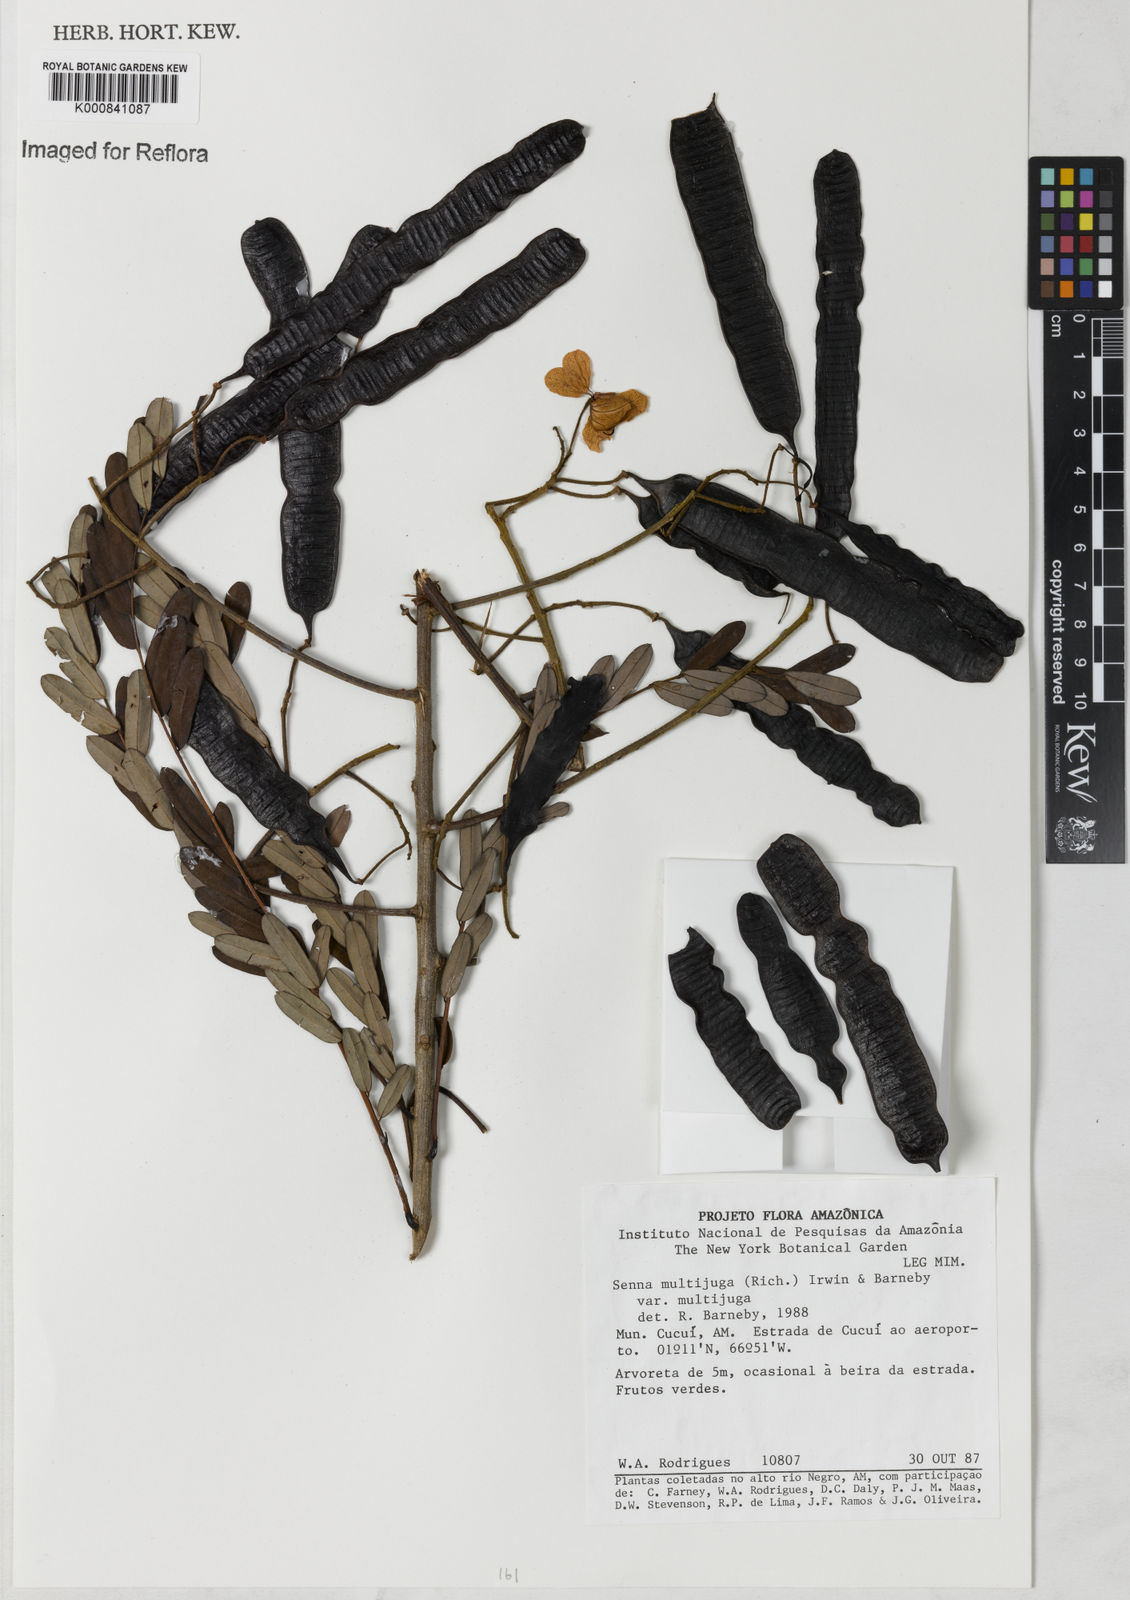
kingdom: Plantae
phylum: Tracheophyta
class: Magnoliopsida
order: Fabales
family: Fabaceae
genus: Senna
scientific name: Senna multijuga
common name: False sicklepod
